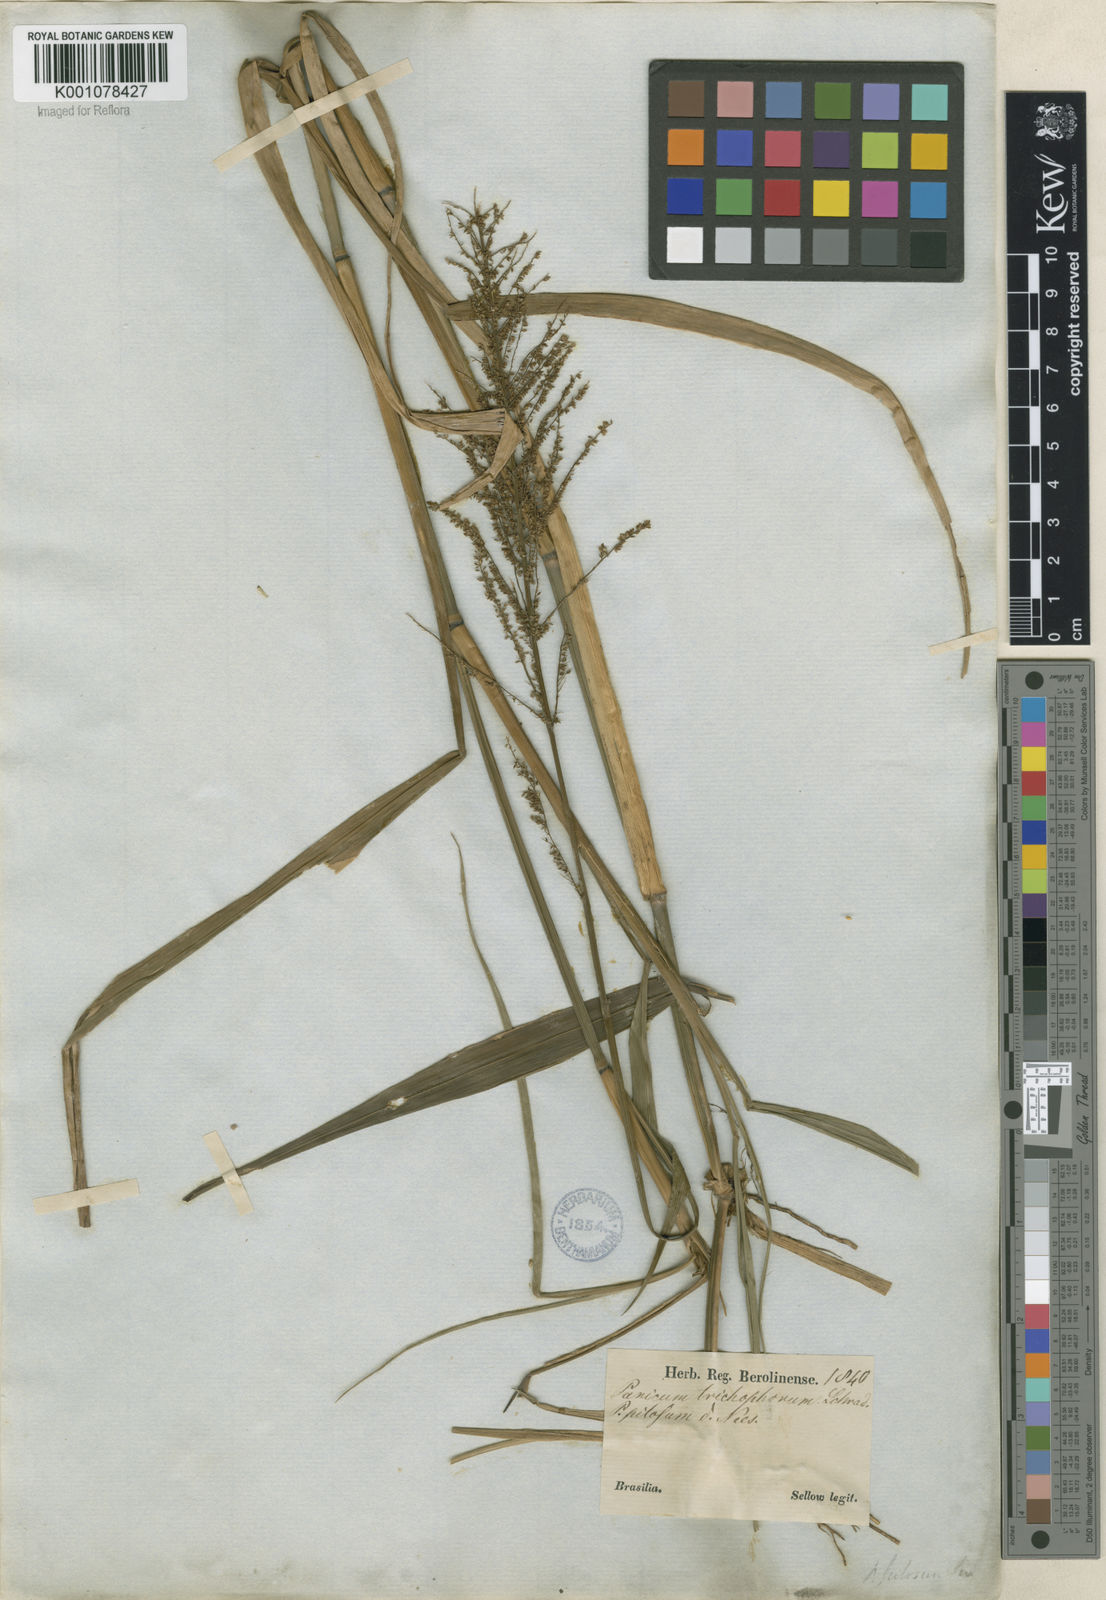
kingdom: Plantae
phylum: Tracheophyta
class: Liliopsida
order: Poales
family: Poaceae
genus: Rugoloa
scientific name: Rugoloa pilosa
